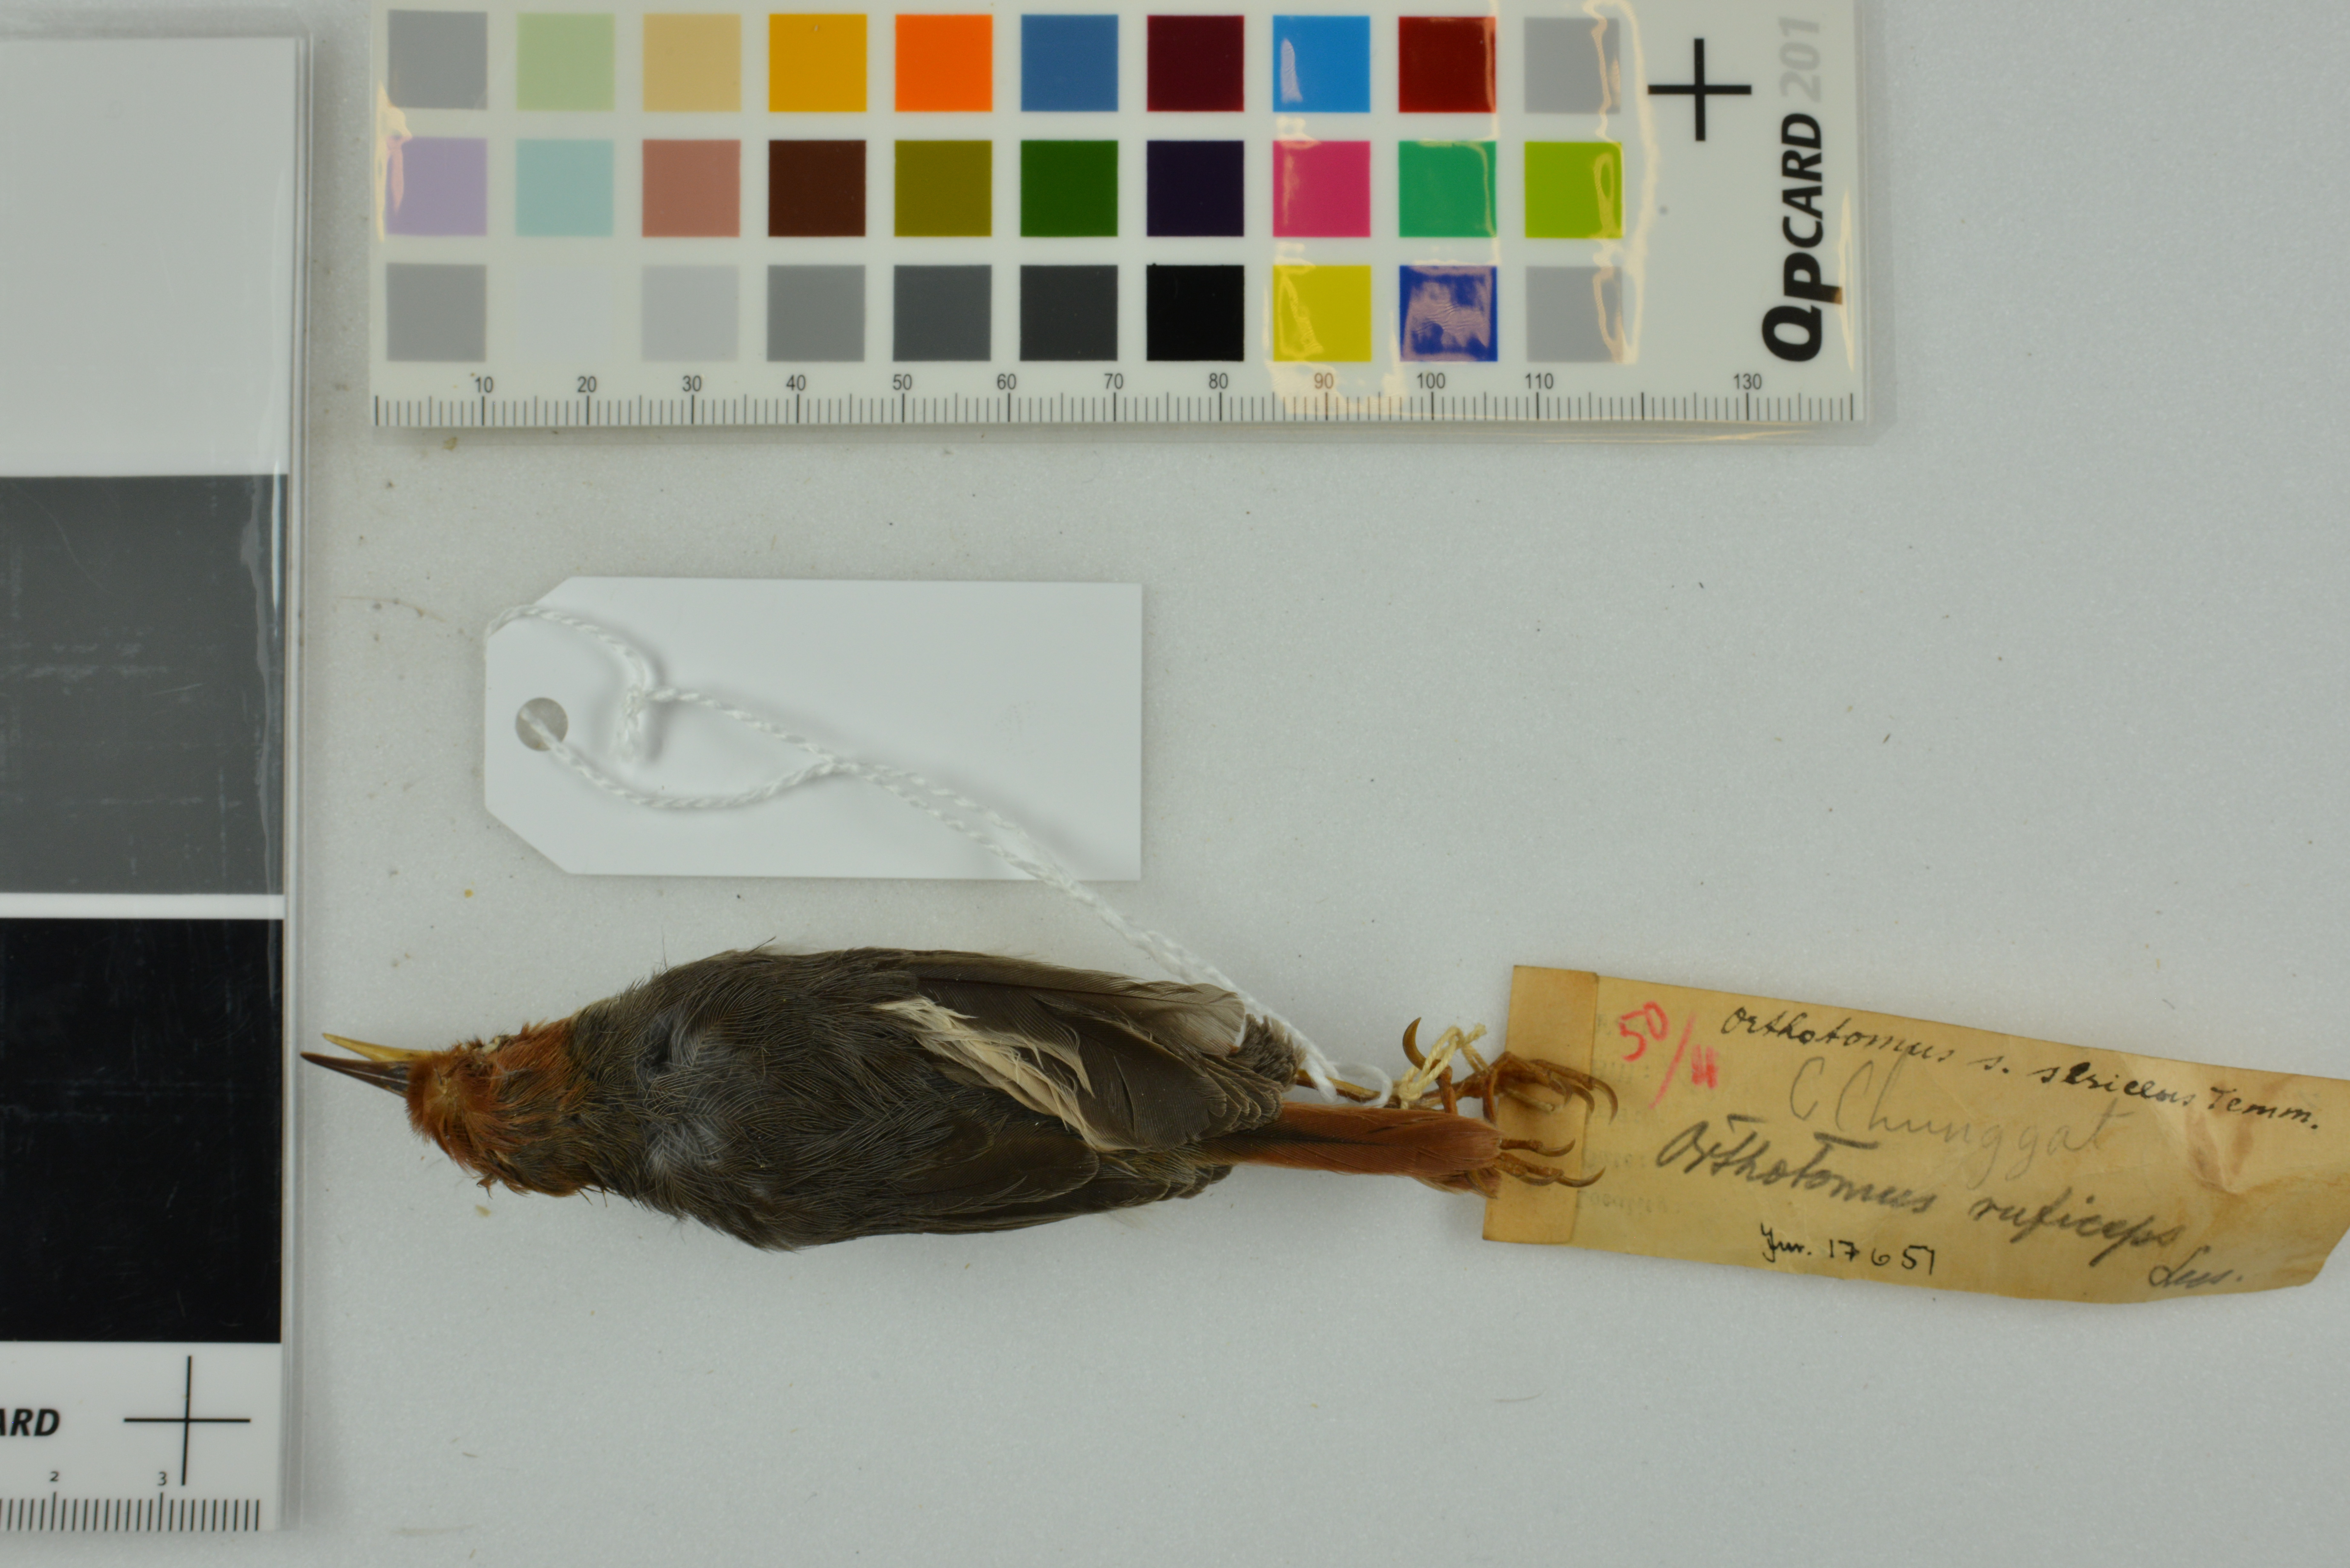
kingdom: Animalia
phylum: Chordata
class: Aves
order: Passeriformes
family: Cisticolidae
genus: Orthotomus
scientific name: Orthotomus sericeus
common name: Rufous-tailed tailorbird
